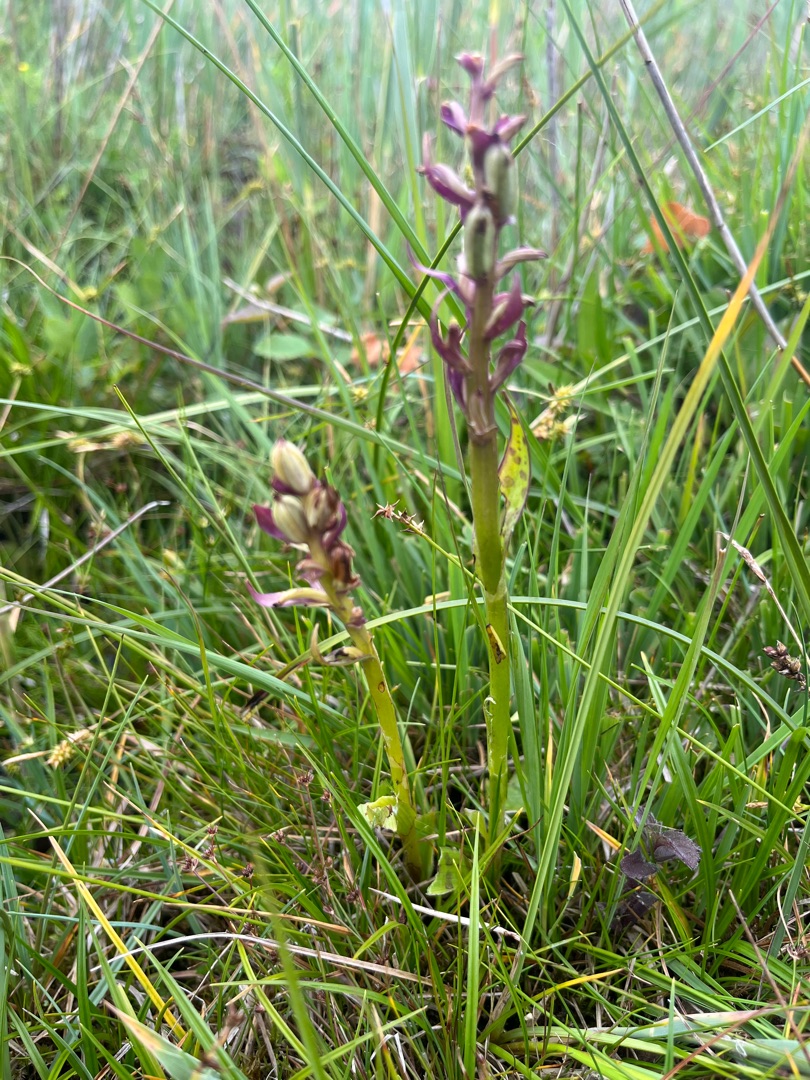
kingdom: Plantae
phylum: Tracheophyta
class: Liliopsida
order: Asparagales
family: Orchidaceae
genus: Dactylorhiza
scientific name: Dactylorhiza majalis
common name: Maj-gøgeurt
